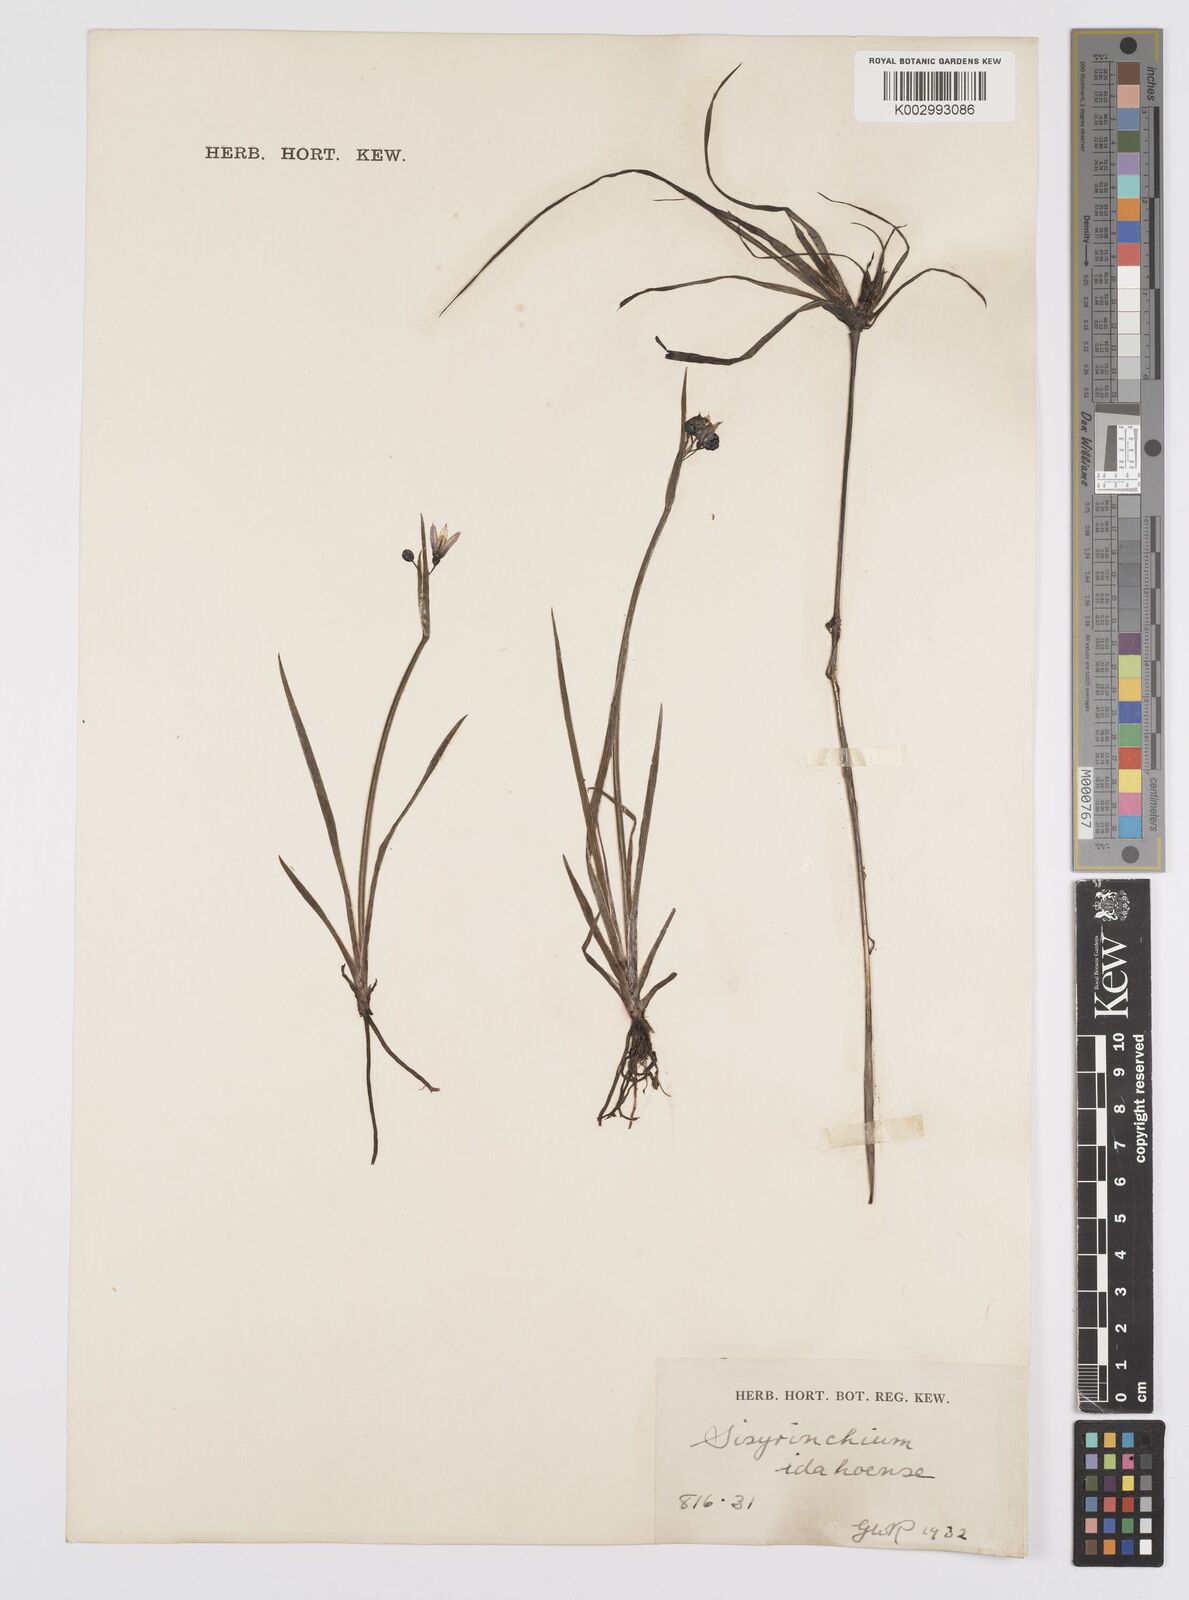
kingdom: Plantae
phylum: Tracheophyta
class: Liliopsida
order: Asparagales
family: Iridaceae
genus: Sisyrinchium
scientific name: Sisyrinchium idahoense
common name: Idaho blue-eyed-grass
